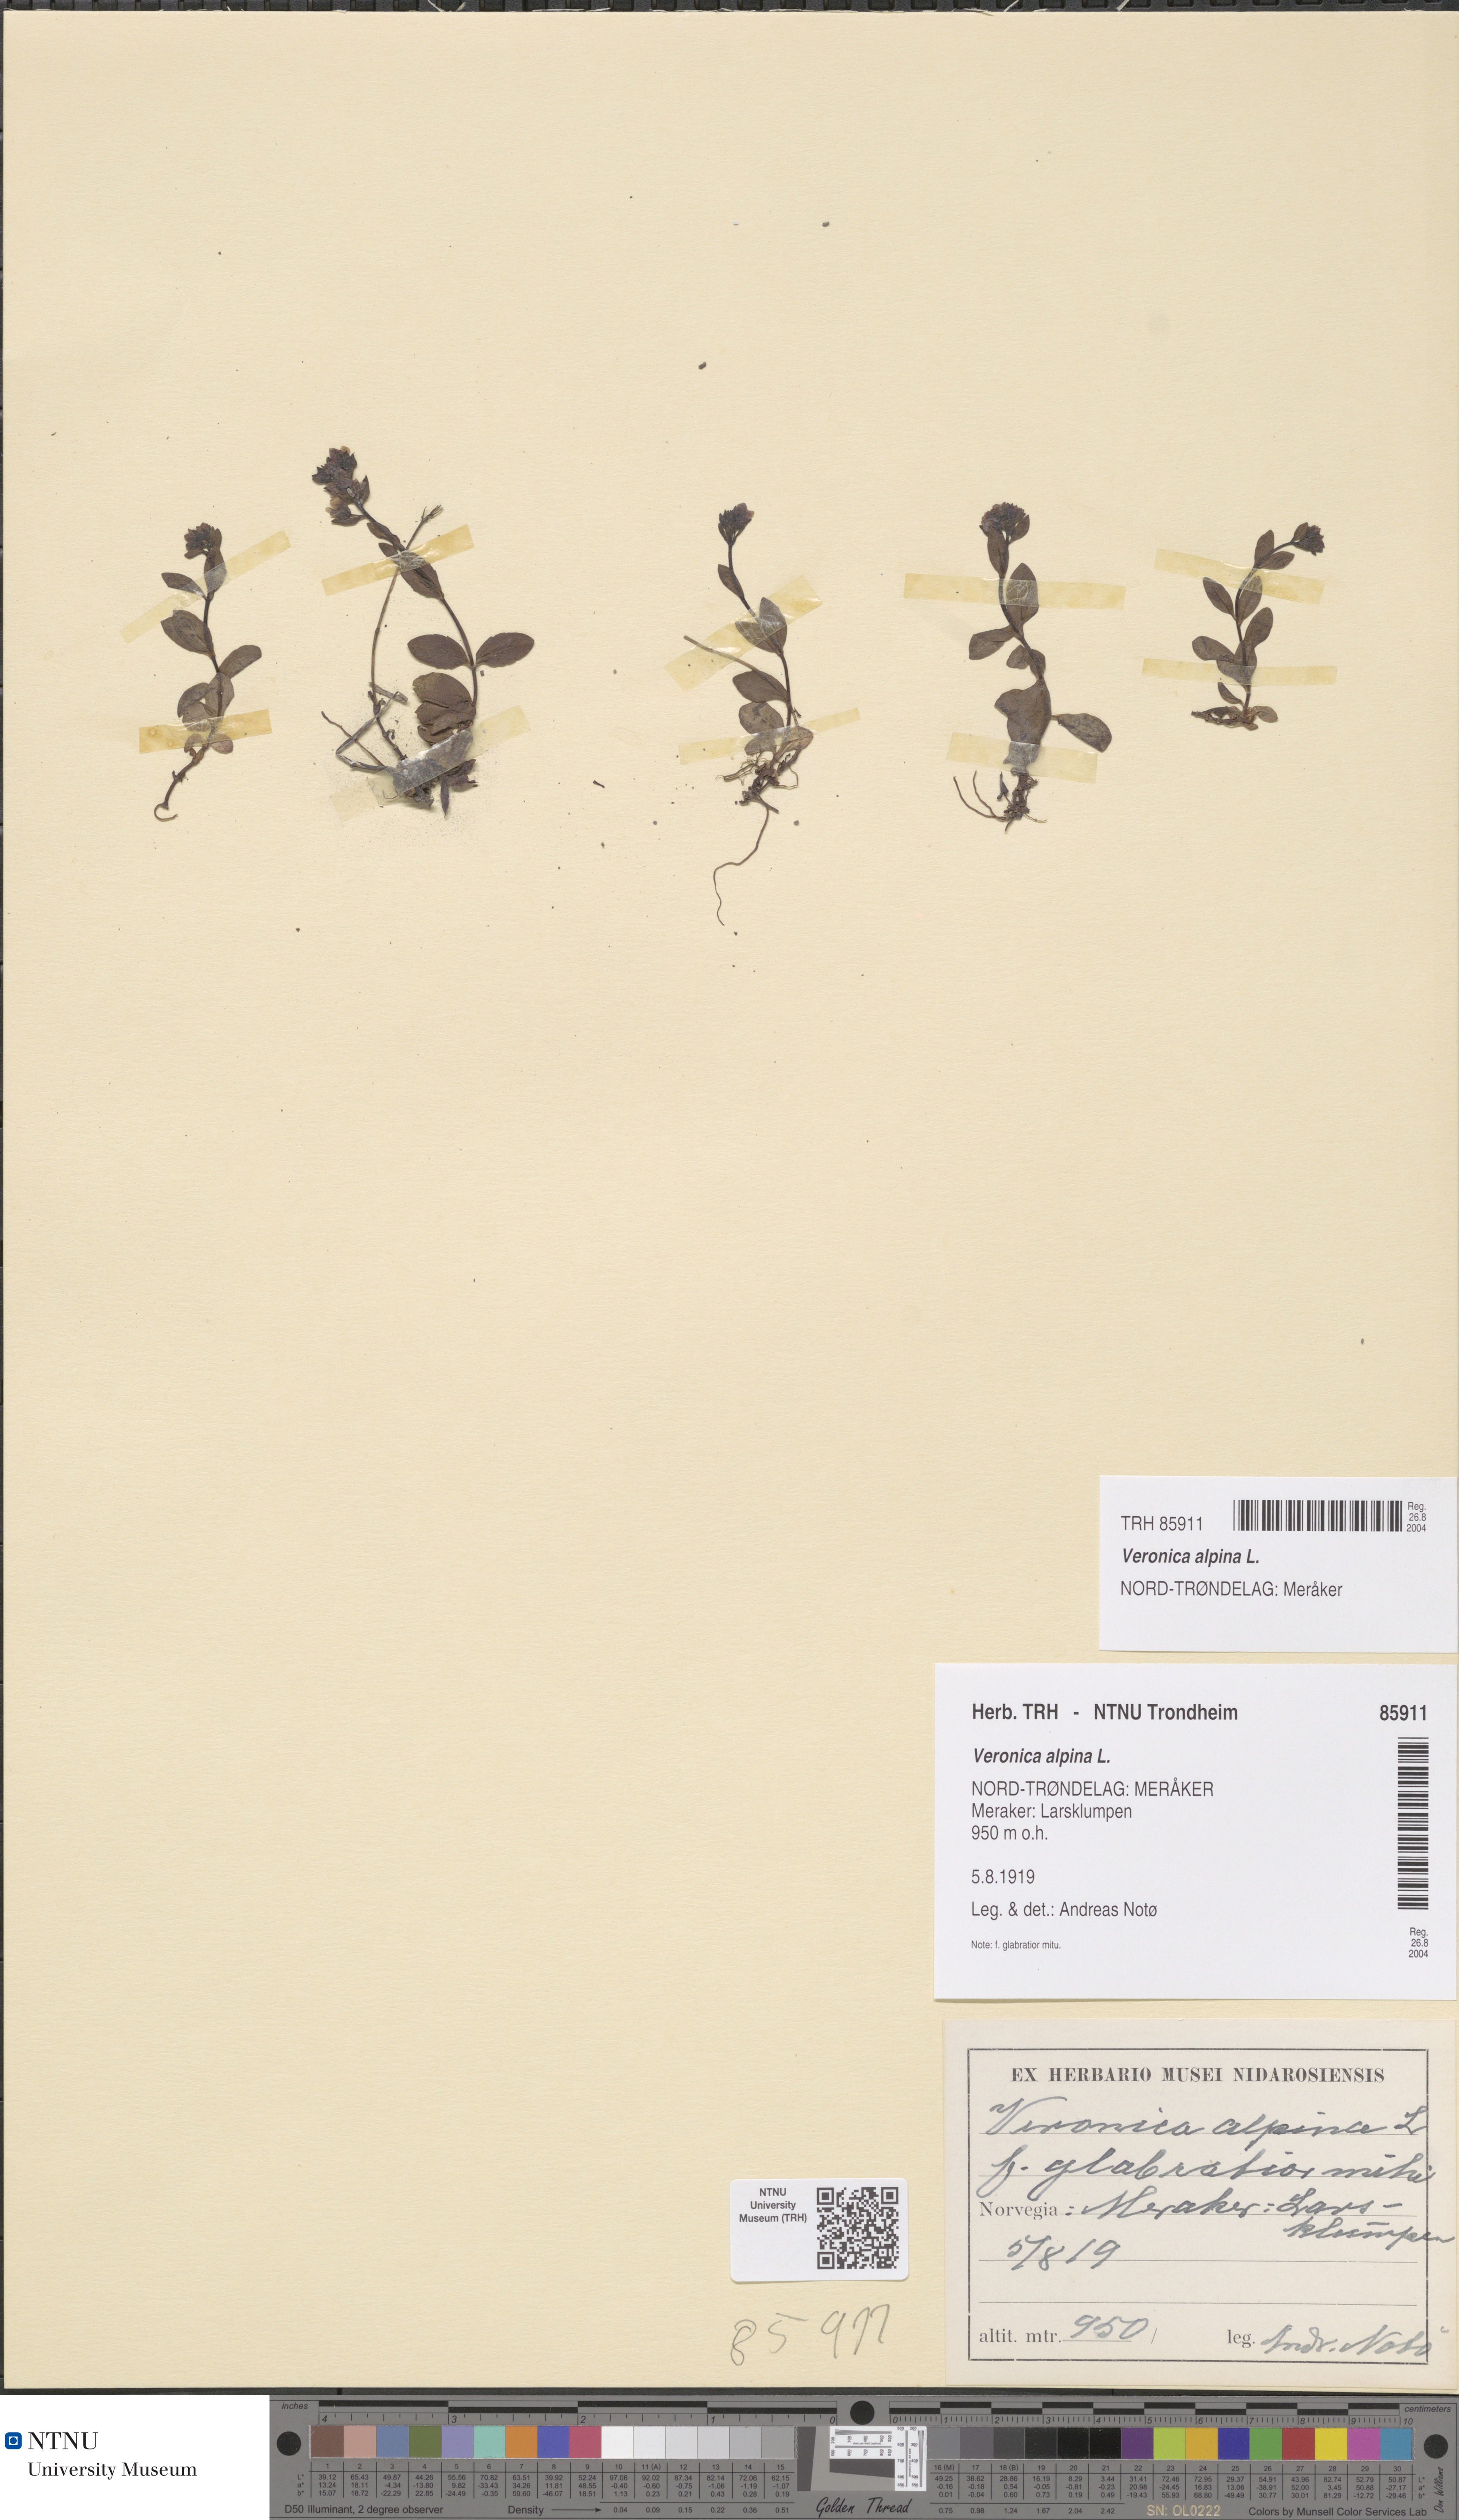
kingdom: Plantae
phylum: Tracheophyta
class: Magnoliopsida
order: Lamiales
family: Plantaginaceae
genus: Veronica
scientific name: Veronica alpina
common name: Alpine speedwell
